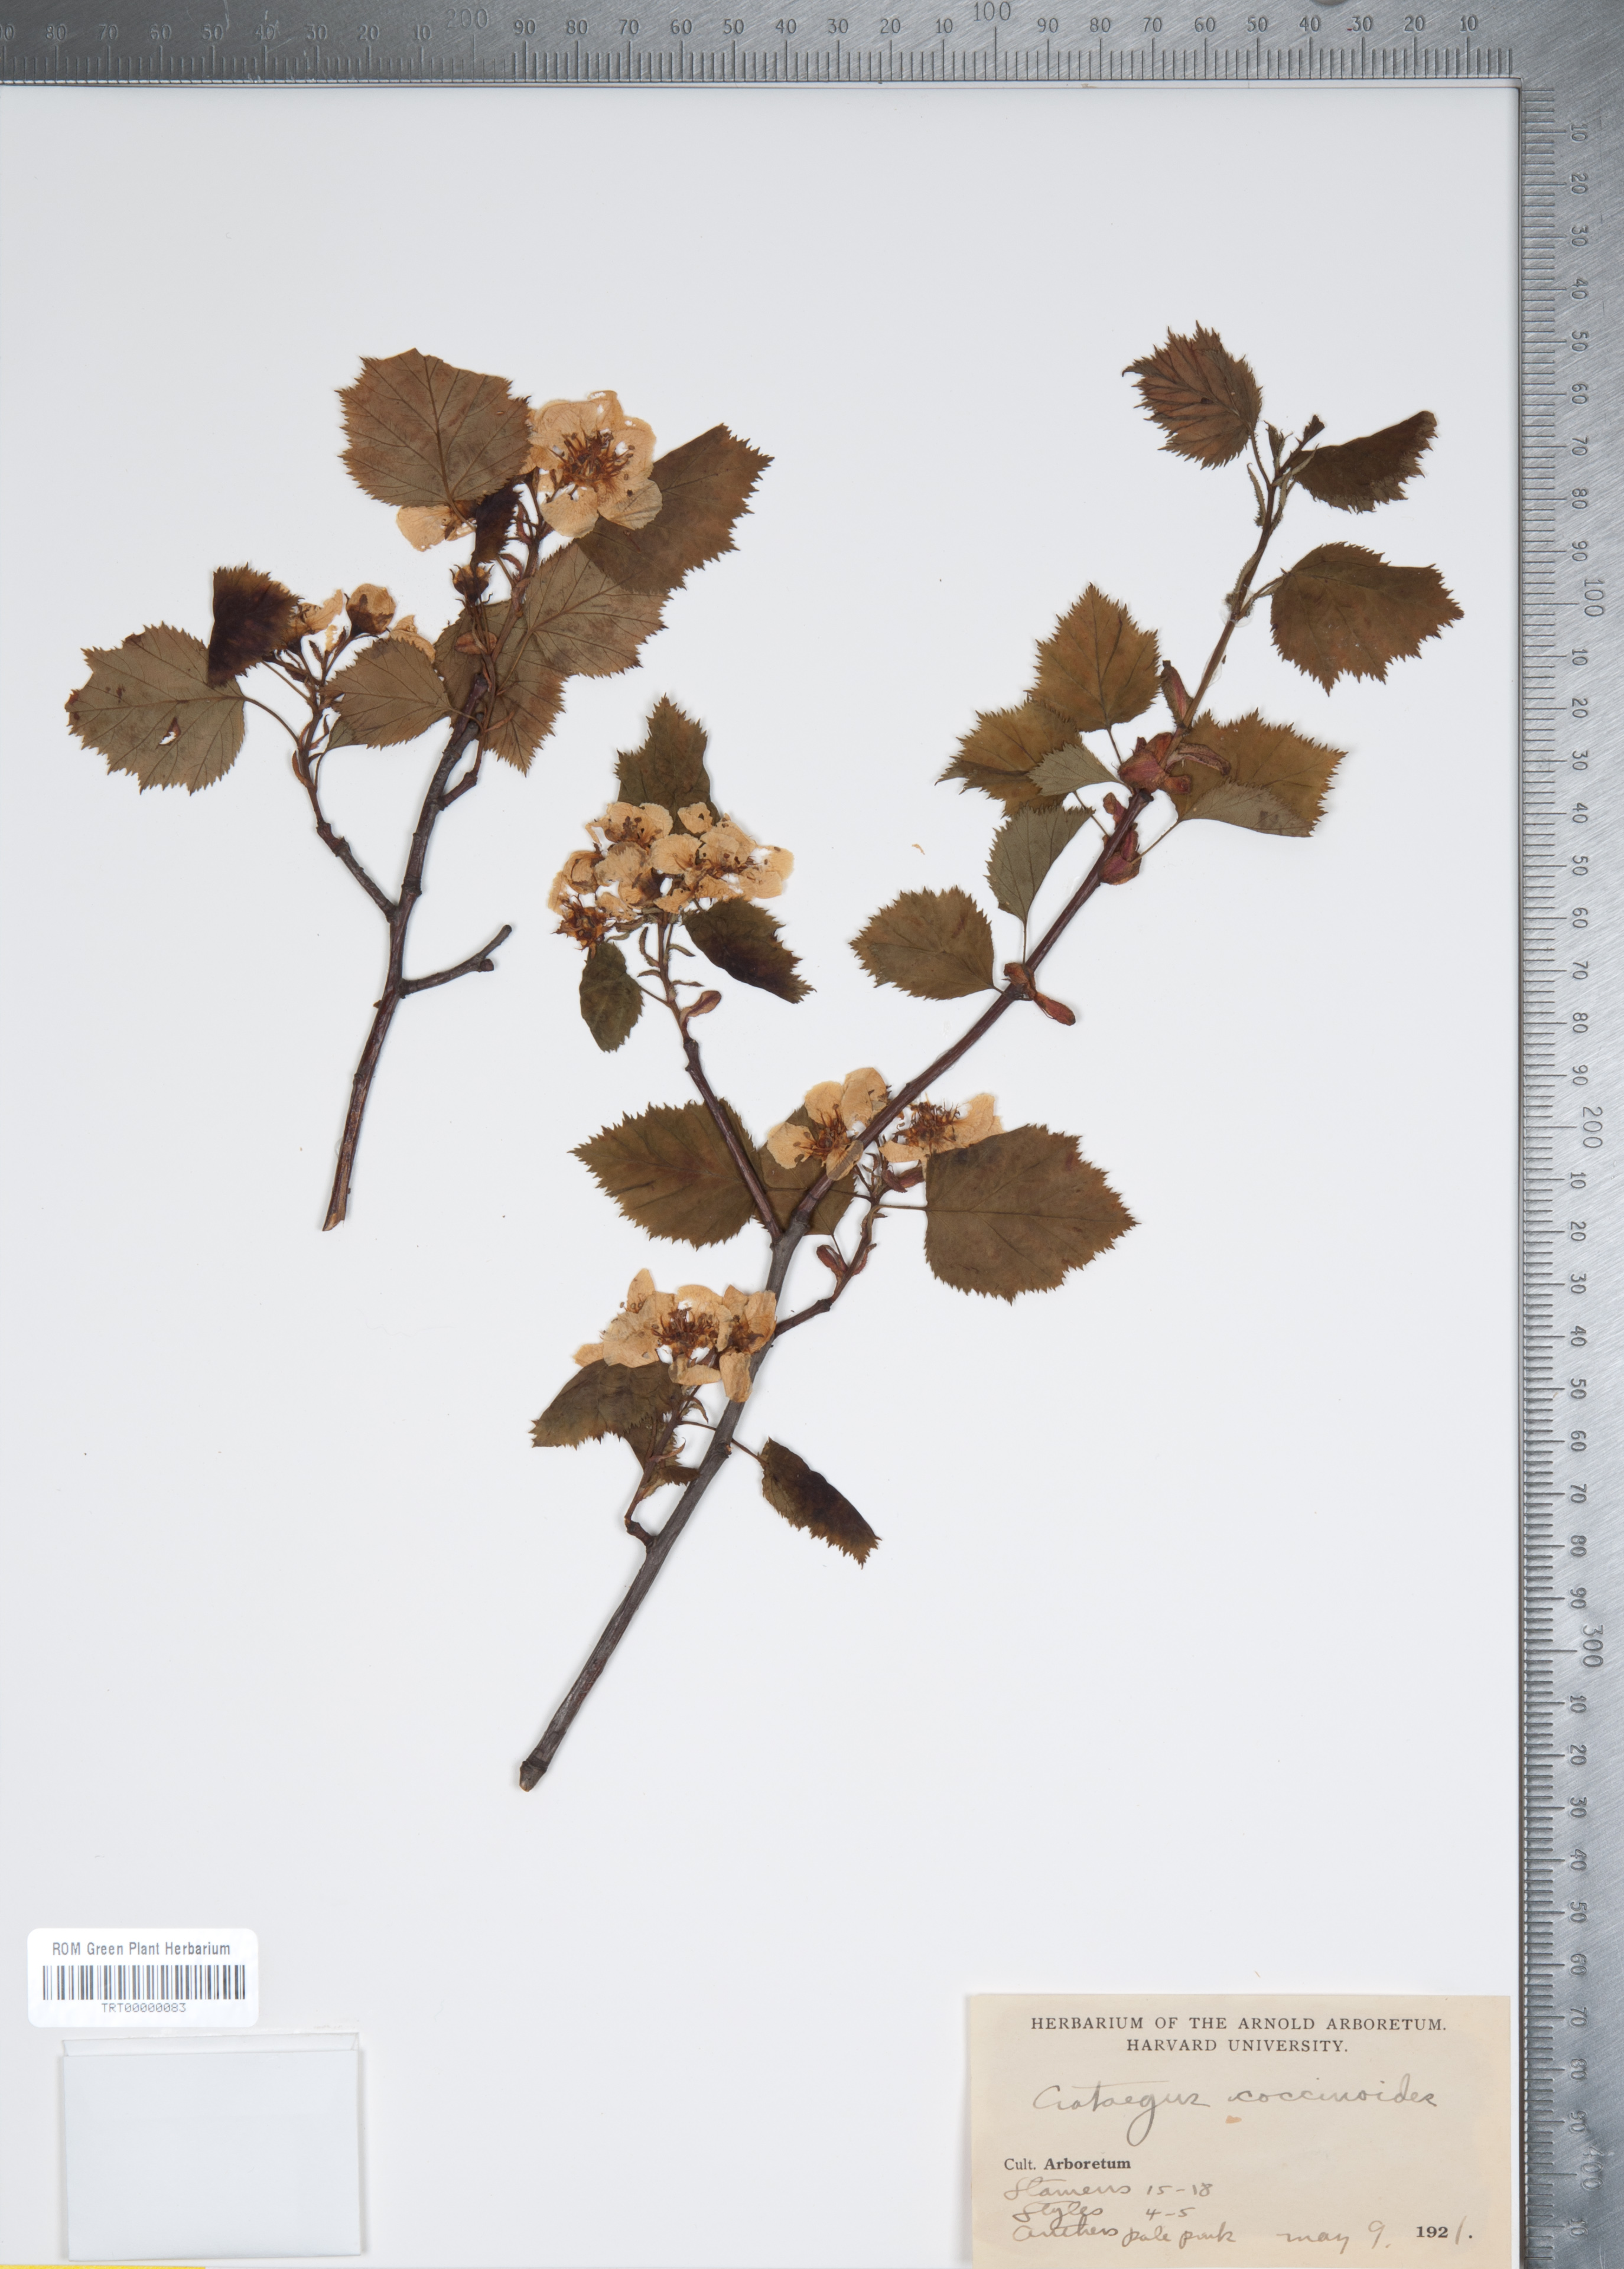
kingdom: Plantae
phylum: Tracheophyta
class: Magnoliopsida
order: Rosales
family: Rosaceae
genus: Crataegus
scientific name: Crataegus coccinioides
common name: Large-flowered cockspurthorn
